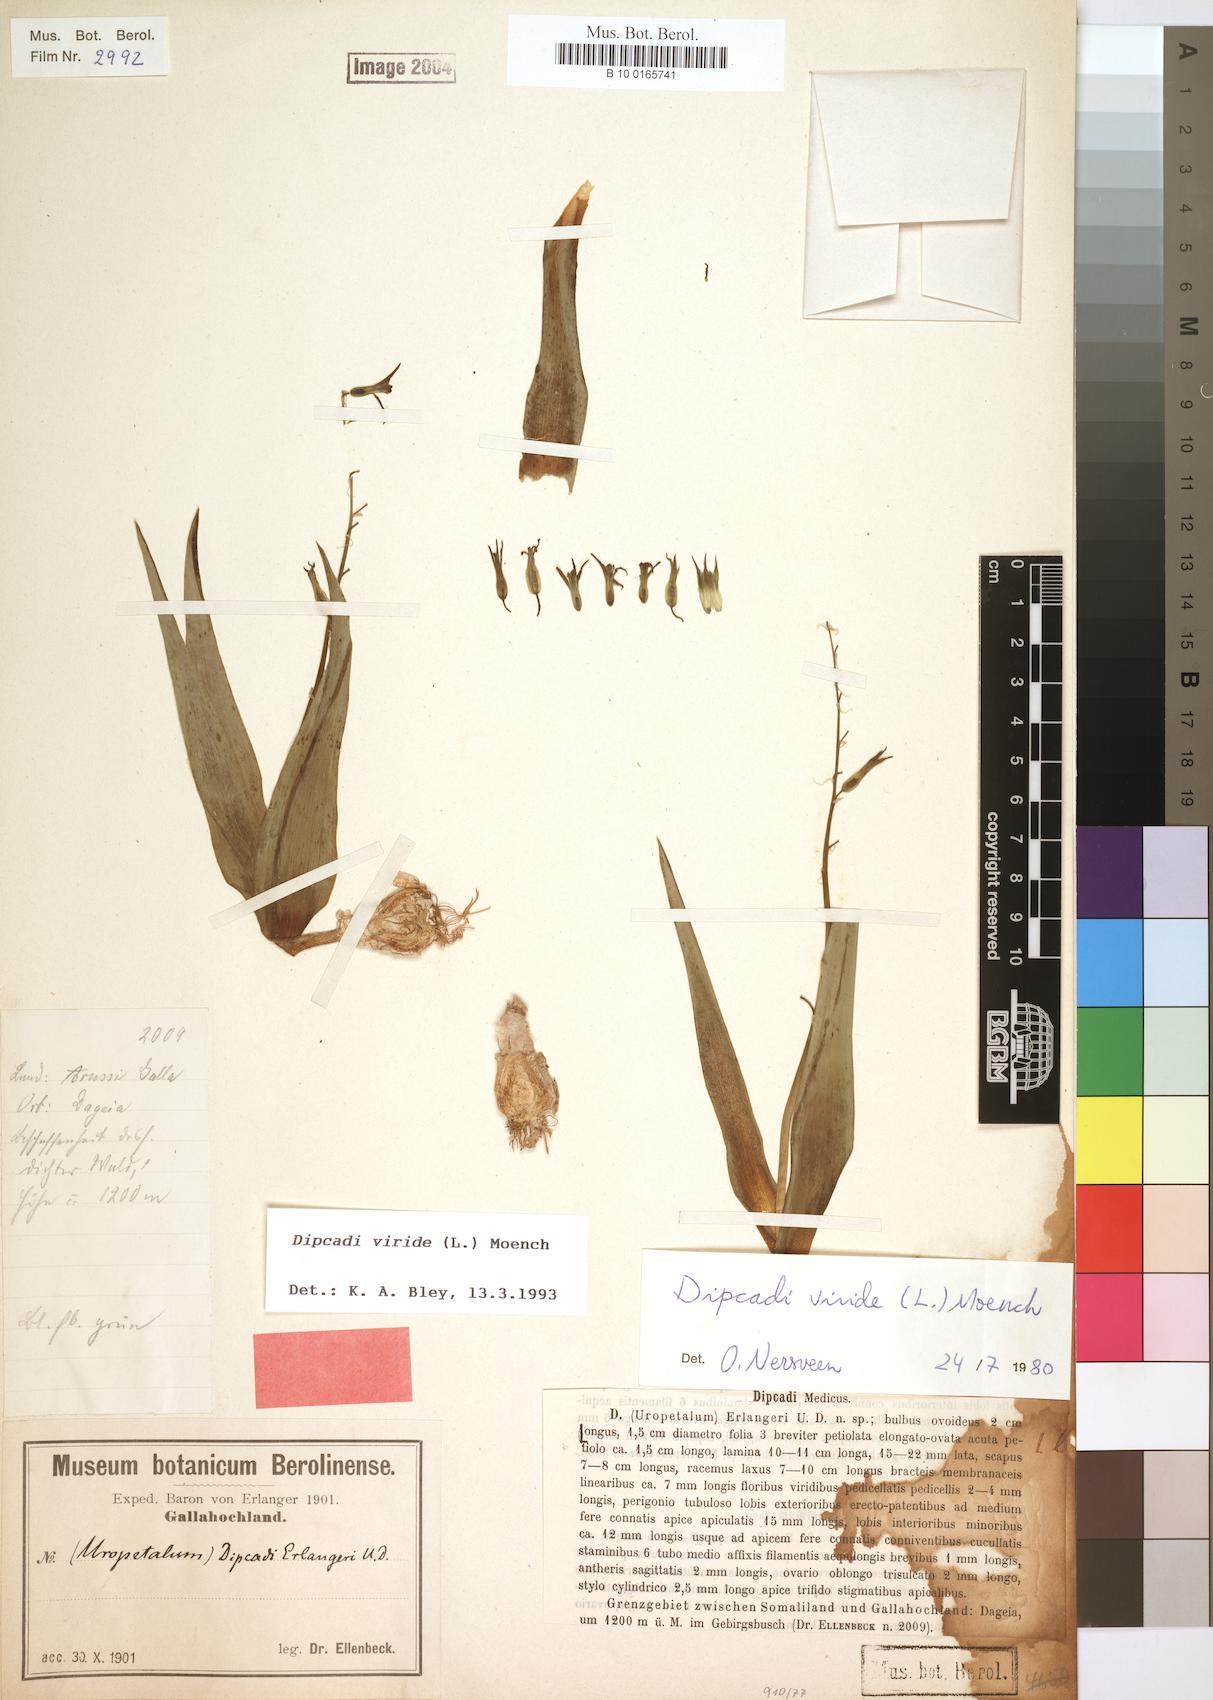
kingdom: Plantae
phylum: Tracheophyta
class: Liliopsida
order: Asparagales
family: Asparagaceae
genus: Dipcadi
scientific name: Dipcadi viride
